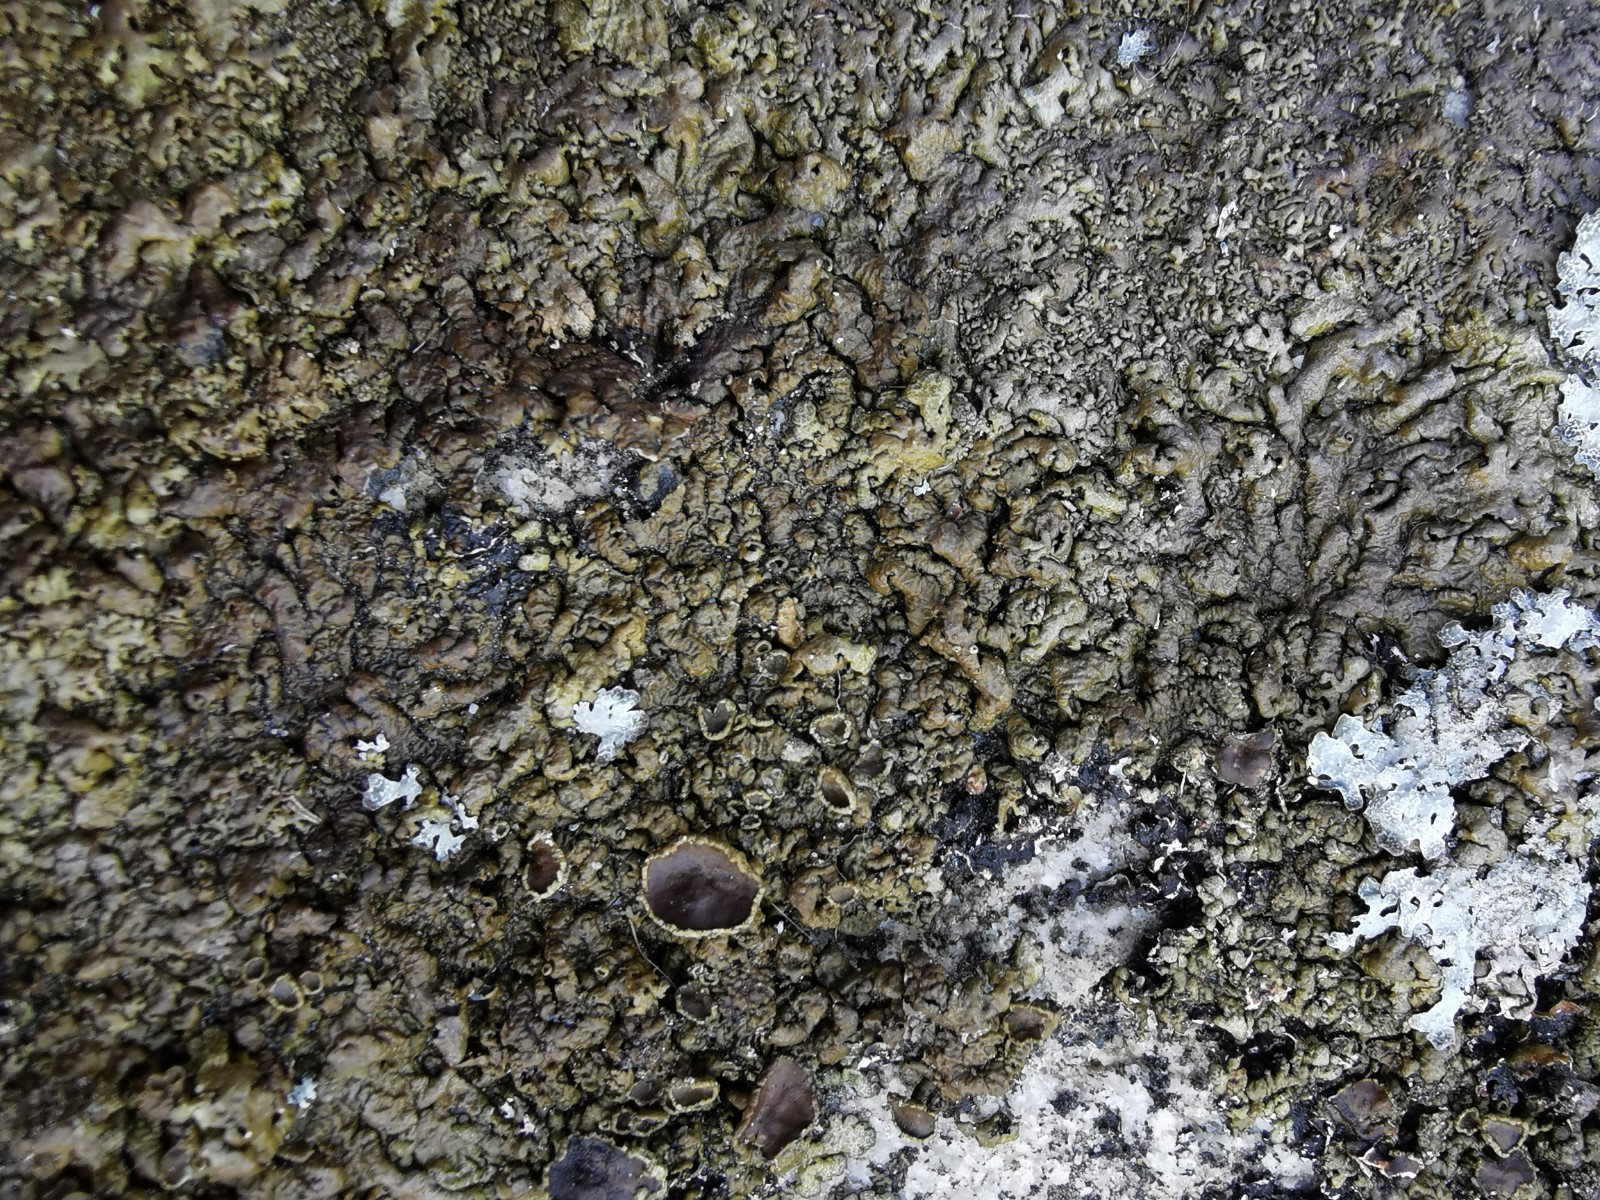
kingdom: Fungi
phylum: Ascomycota
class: Lecanoromycetes
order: Lecanorales
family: Parmeliaceae
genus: Xanthoparmelia
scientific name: Xanthoparmelia pulla
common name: mørkebrun skållav
